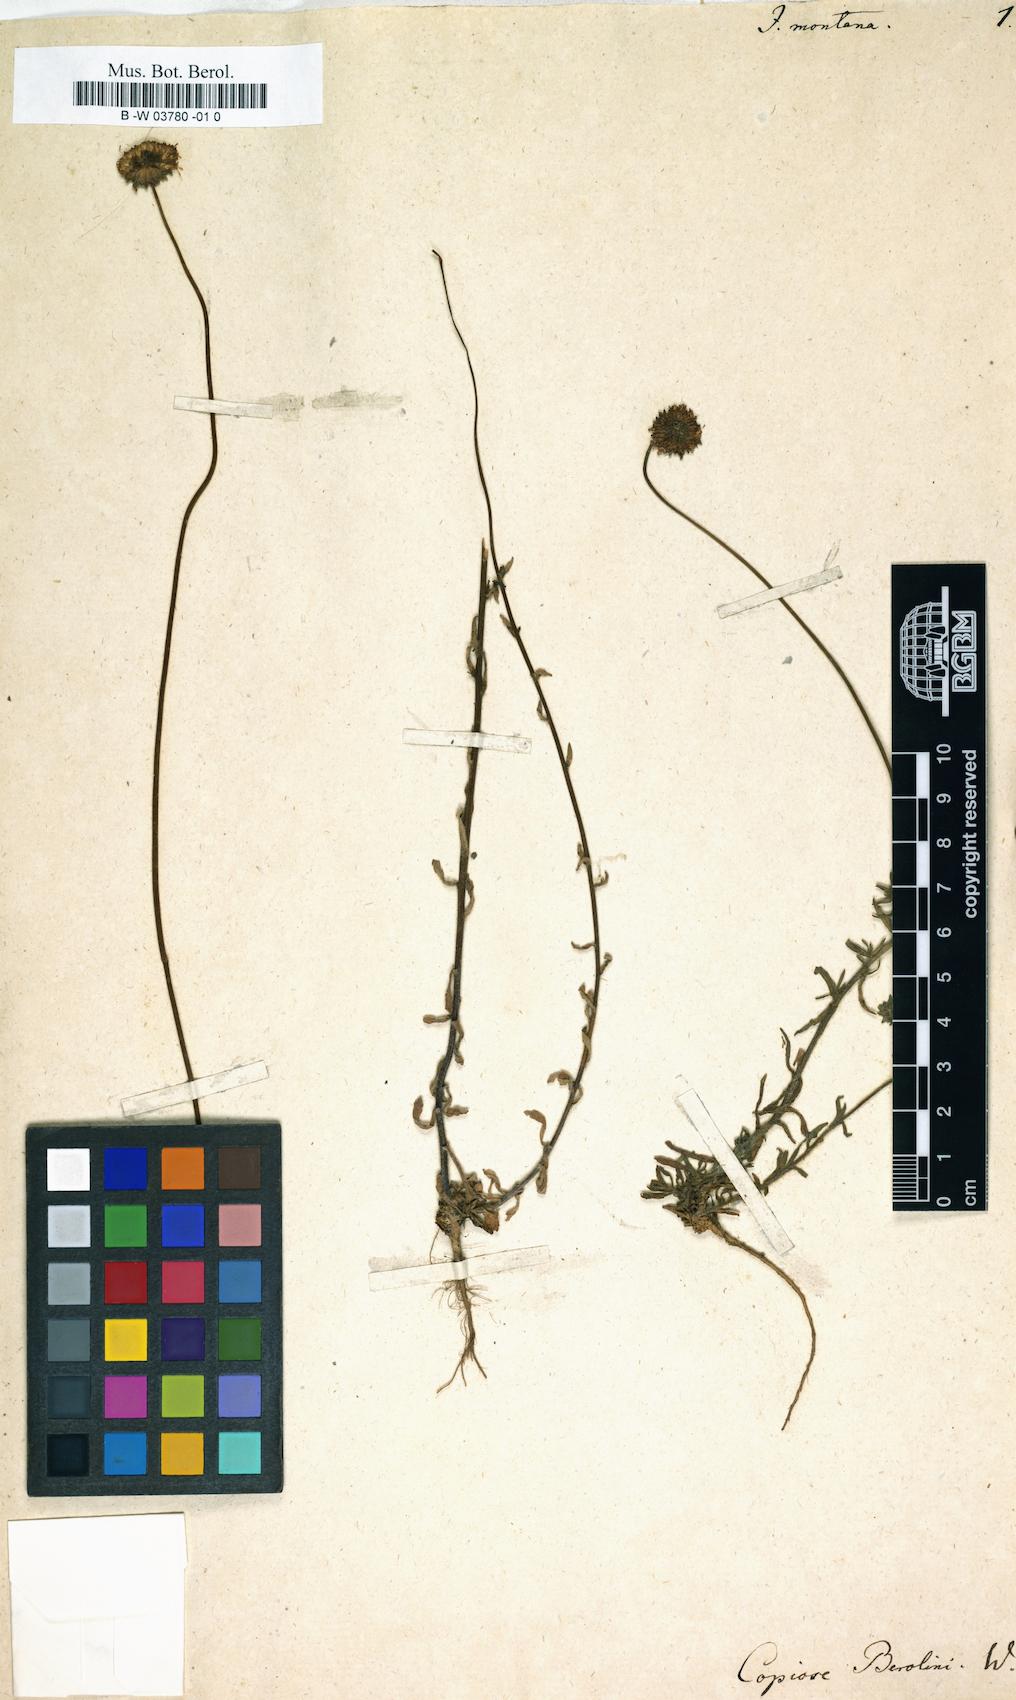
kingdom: Plantae
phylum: Tracheophyta
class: Magnoliopsida
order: Asterales
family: Campanulaceae
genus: Jasione
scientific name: Jasione montana
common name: Sheep's-bit
